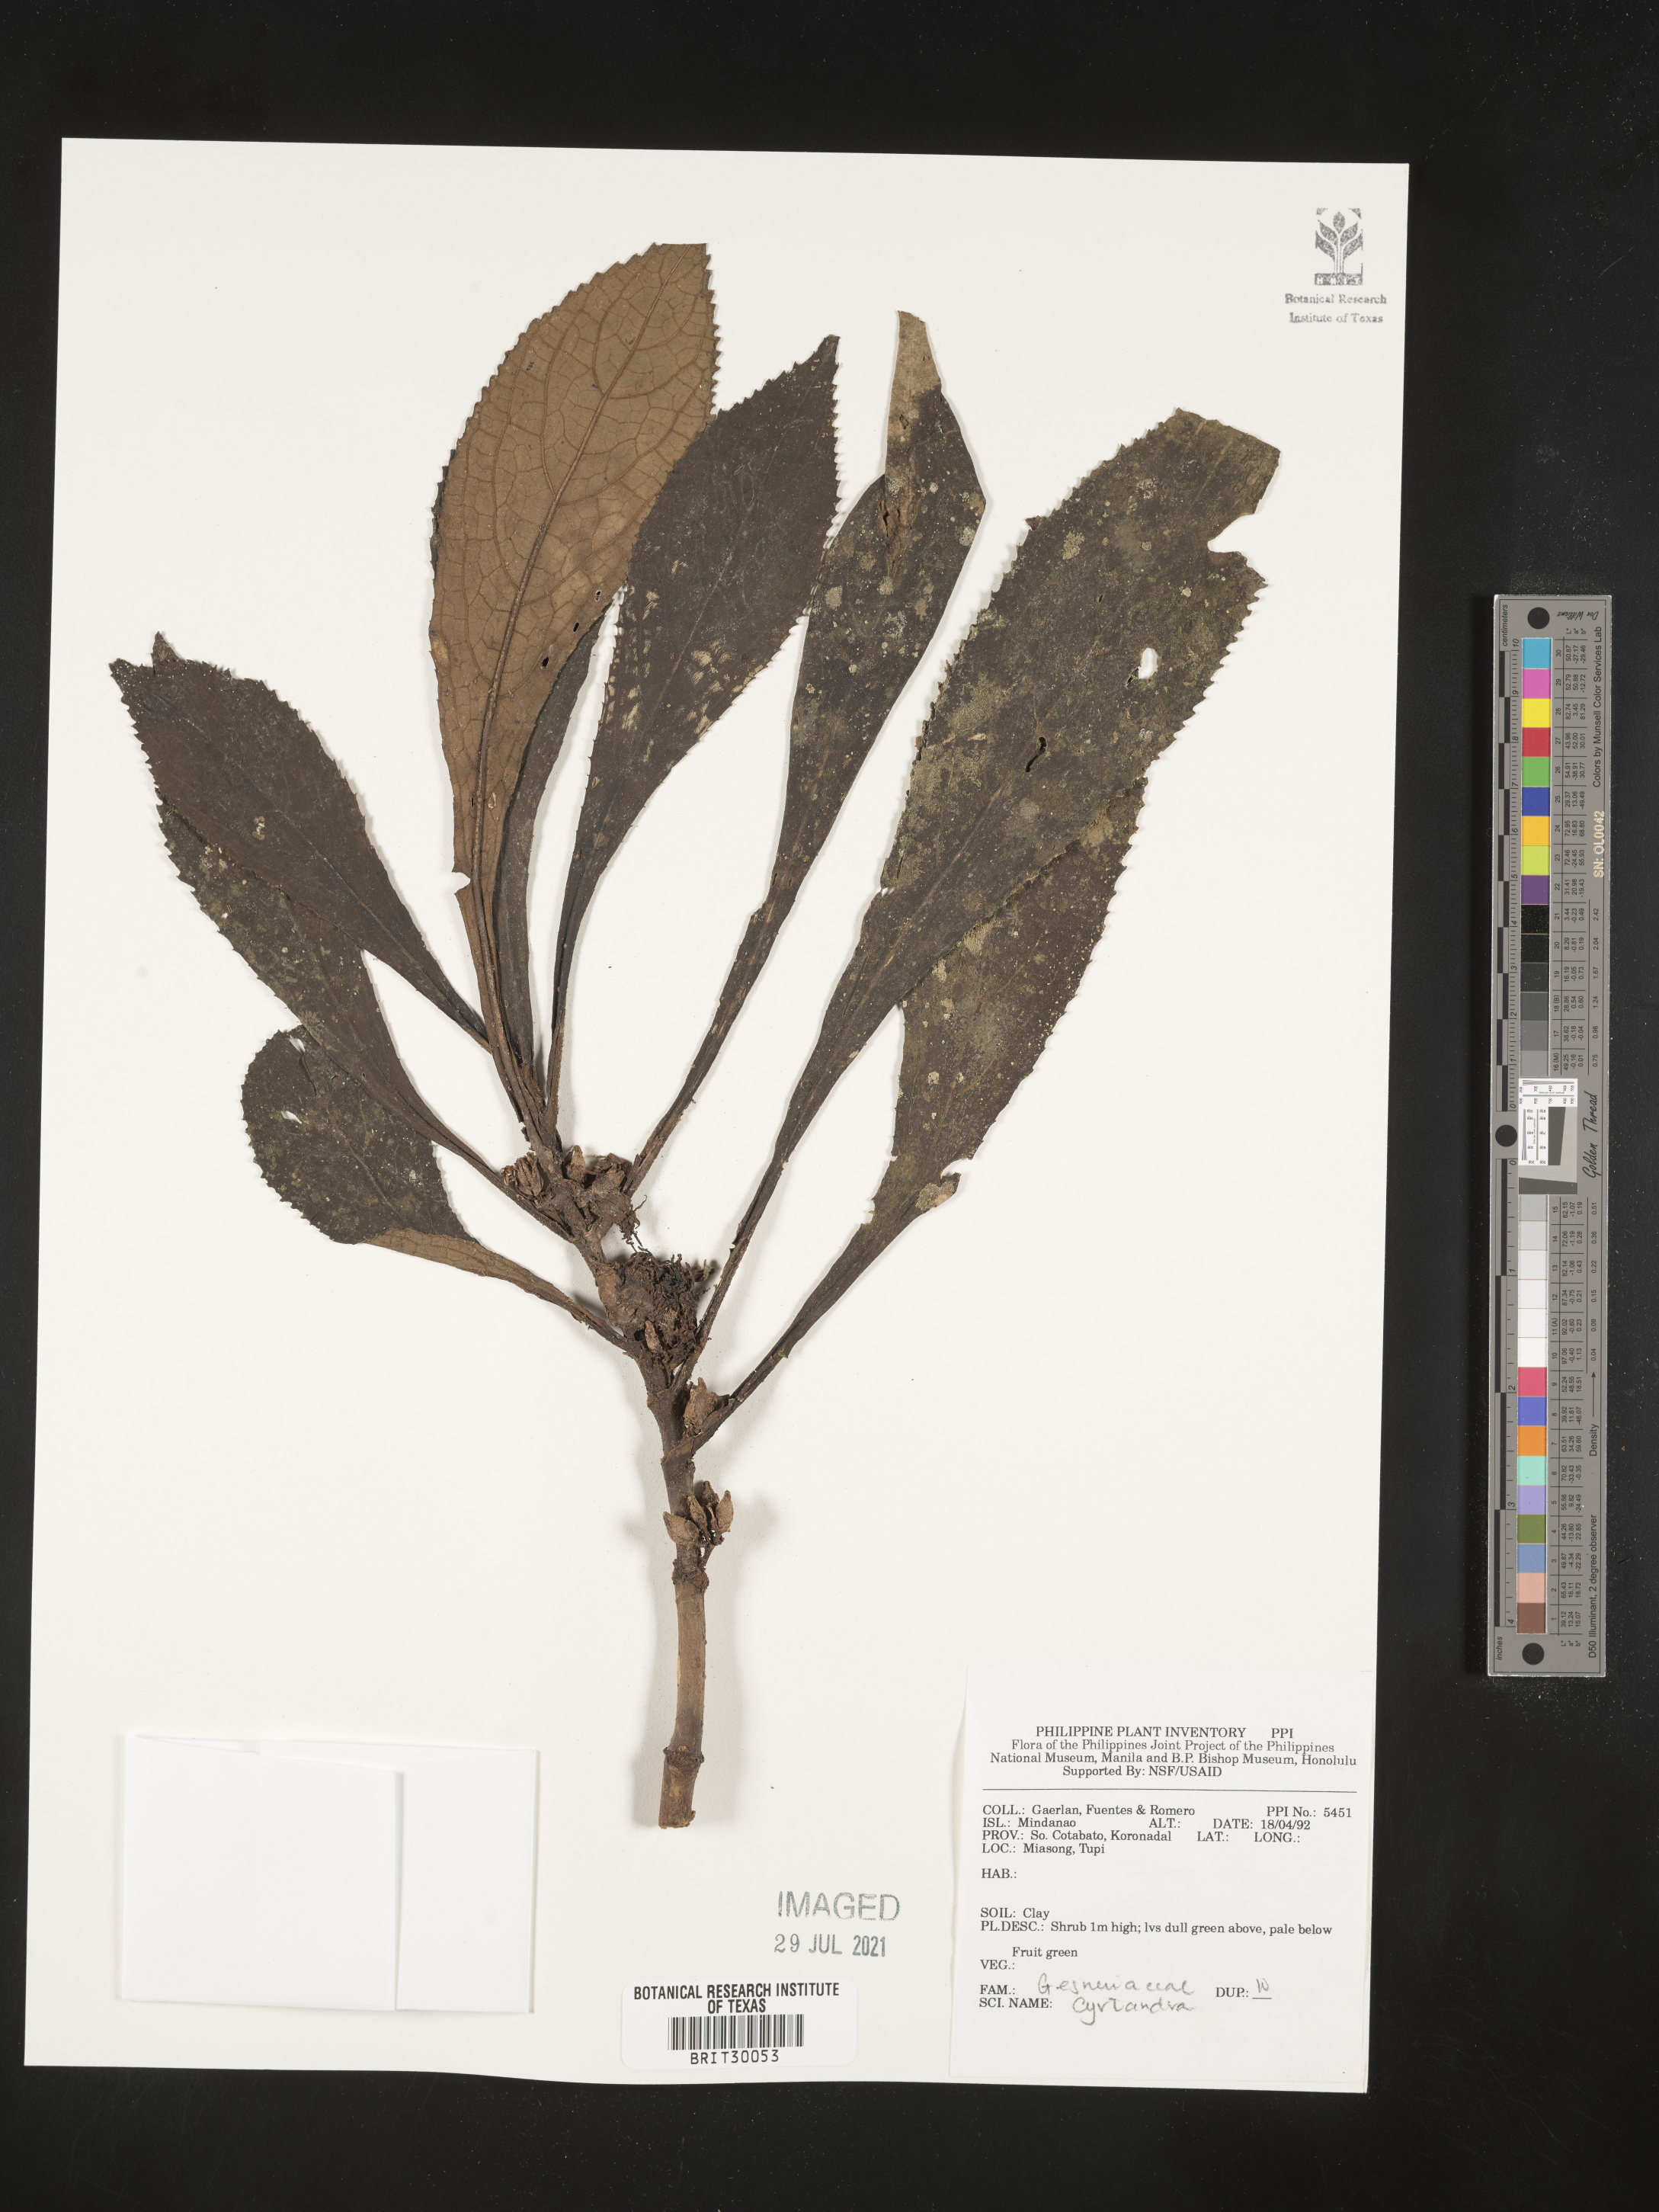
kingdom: Plantae
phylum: Tracheophyta
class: Magnoliopsida
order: Lamiales
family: Gesneriaceae
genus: Cyrtandra
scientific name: Cyrtandra
